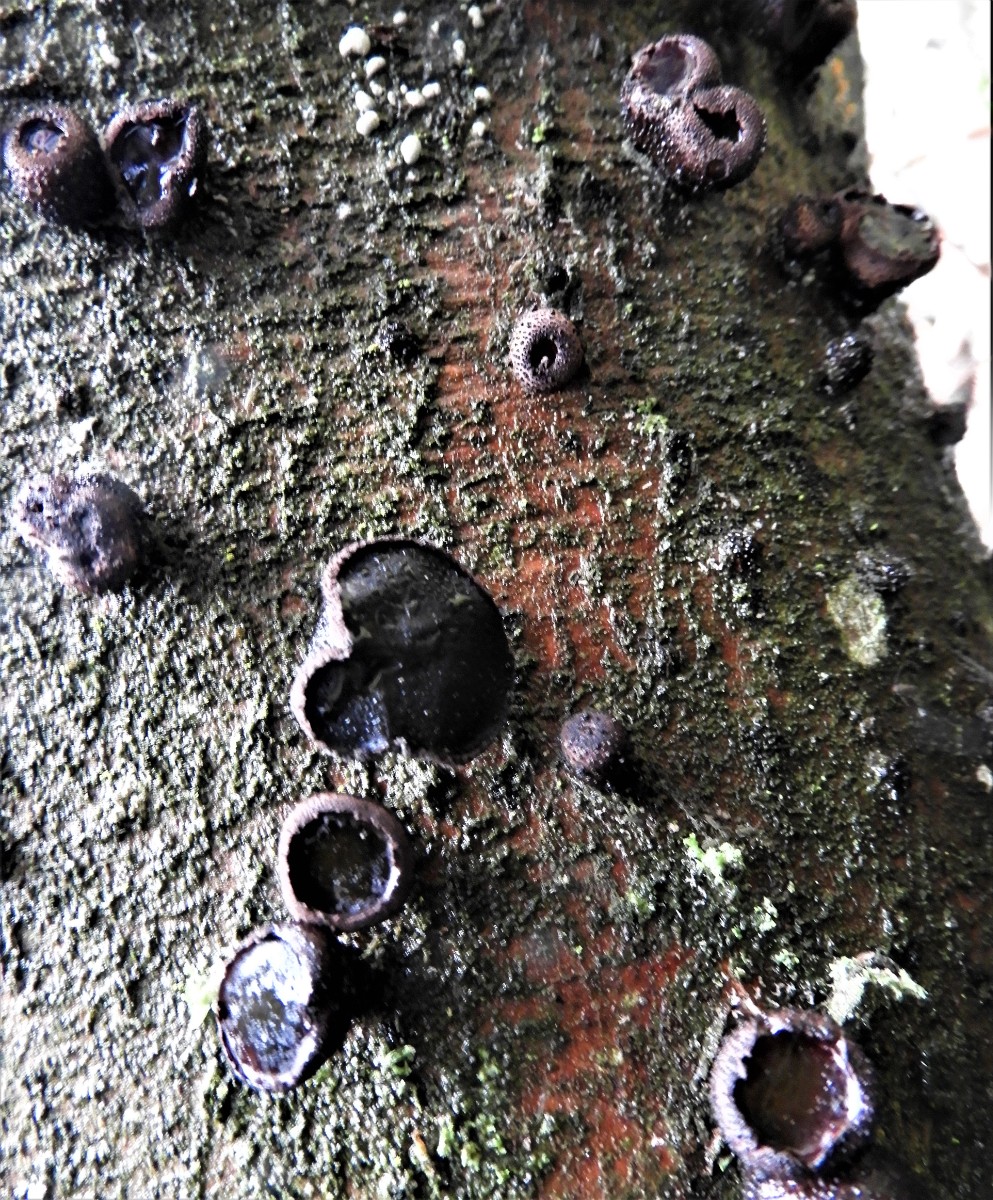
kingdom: Fungi
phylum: Ascomycota
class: Leotiomycetes
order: Phacidiales
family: Phacidiaceae
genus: Bulgaria
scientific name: Bulgaria inquinans
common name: afsmittende topsvamp
